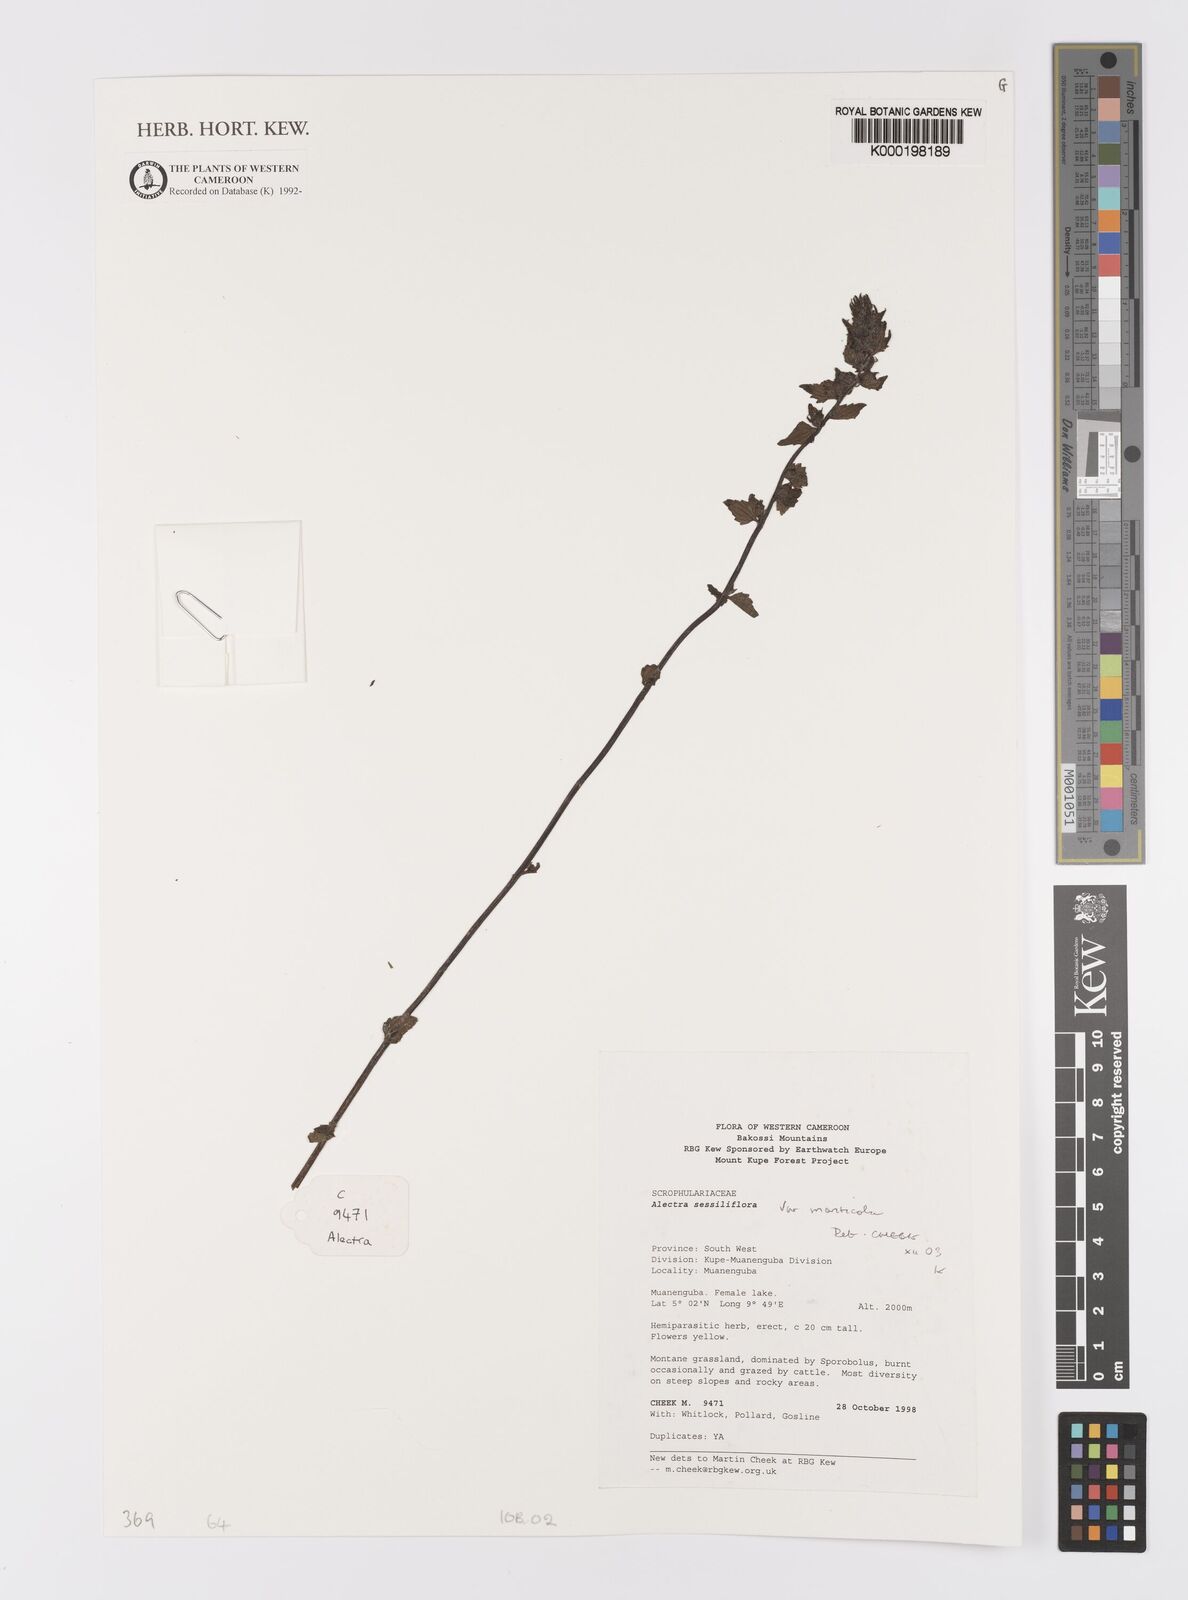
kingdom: Plantae
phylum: Tracheophyta
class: Magnoliopsida
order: Lamiales
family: Orobanchaceae
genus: Alectra
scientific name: Alectra sessiliflora
